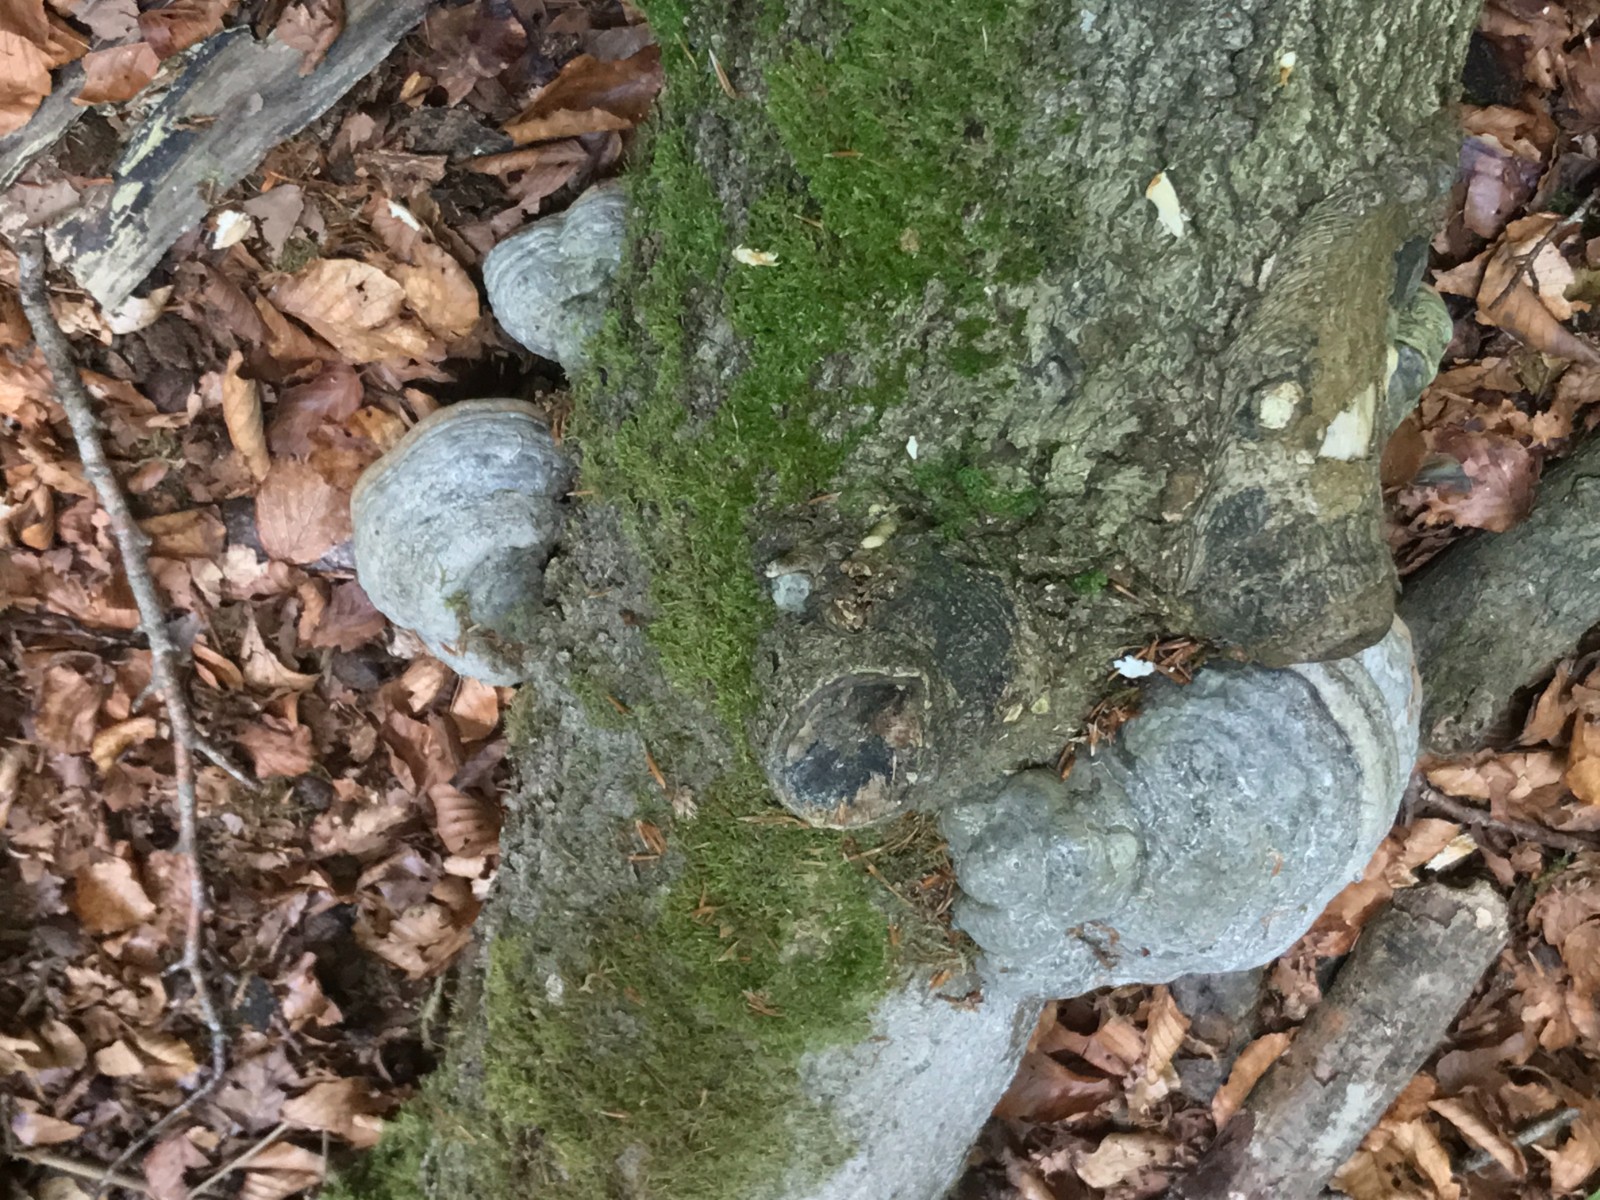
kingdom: Fungi
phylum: Basidiomycota
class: Agaricomycetes
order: Polyporales
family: Polyporaceae
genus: Fomes
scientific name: Fomes fomentarius
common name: tøndersvamp
